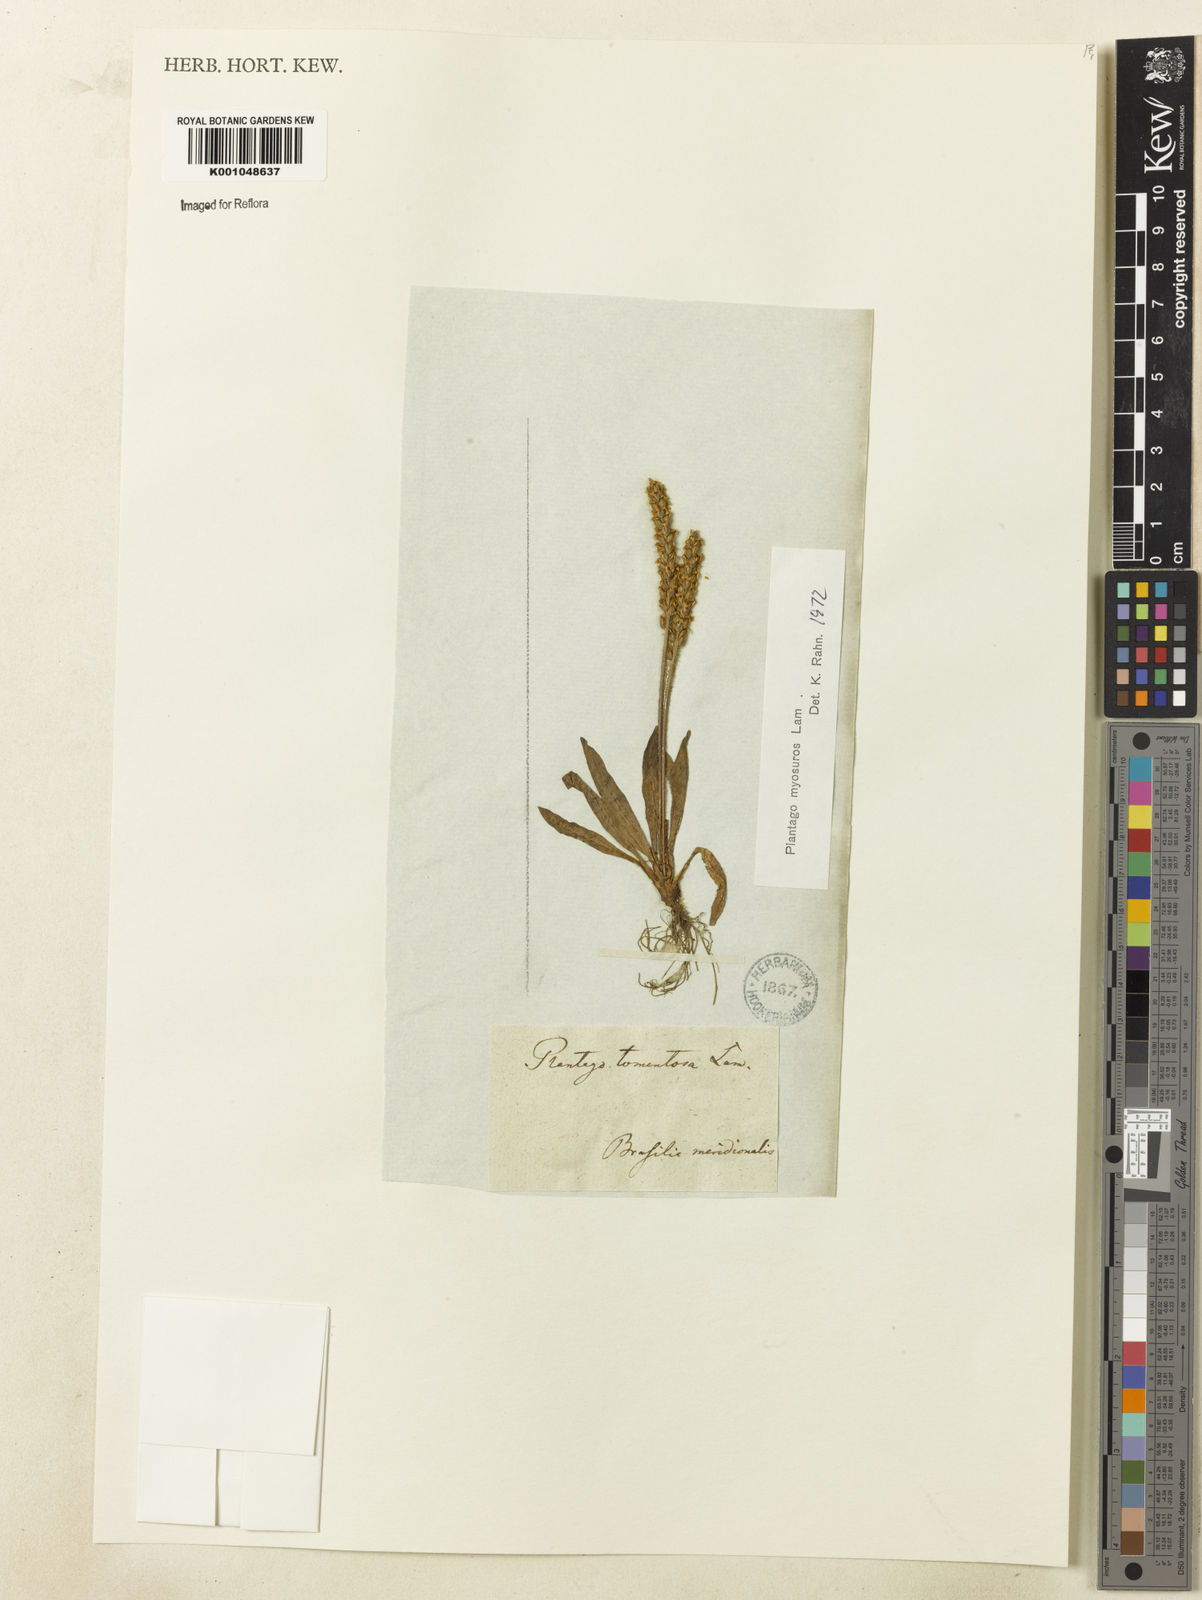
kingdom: Plantae
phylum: Tracheophyta
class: Magnoliopsida
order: Lamiales
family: Plantaginaceae
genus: Plantago
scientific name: Plantago myosuros
